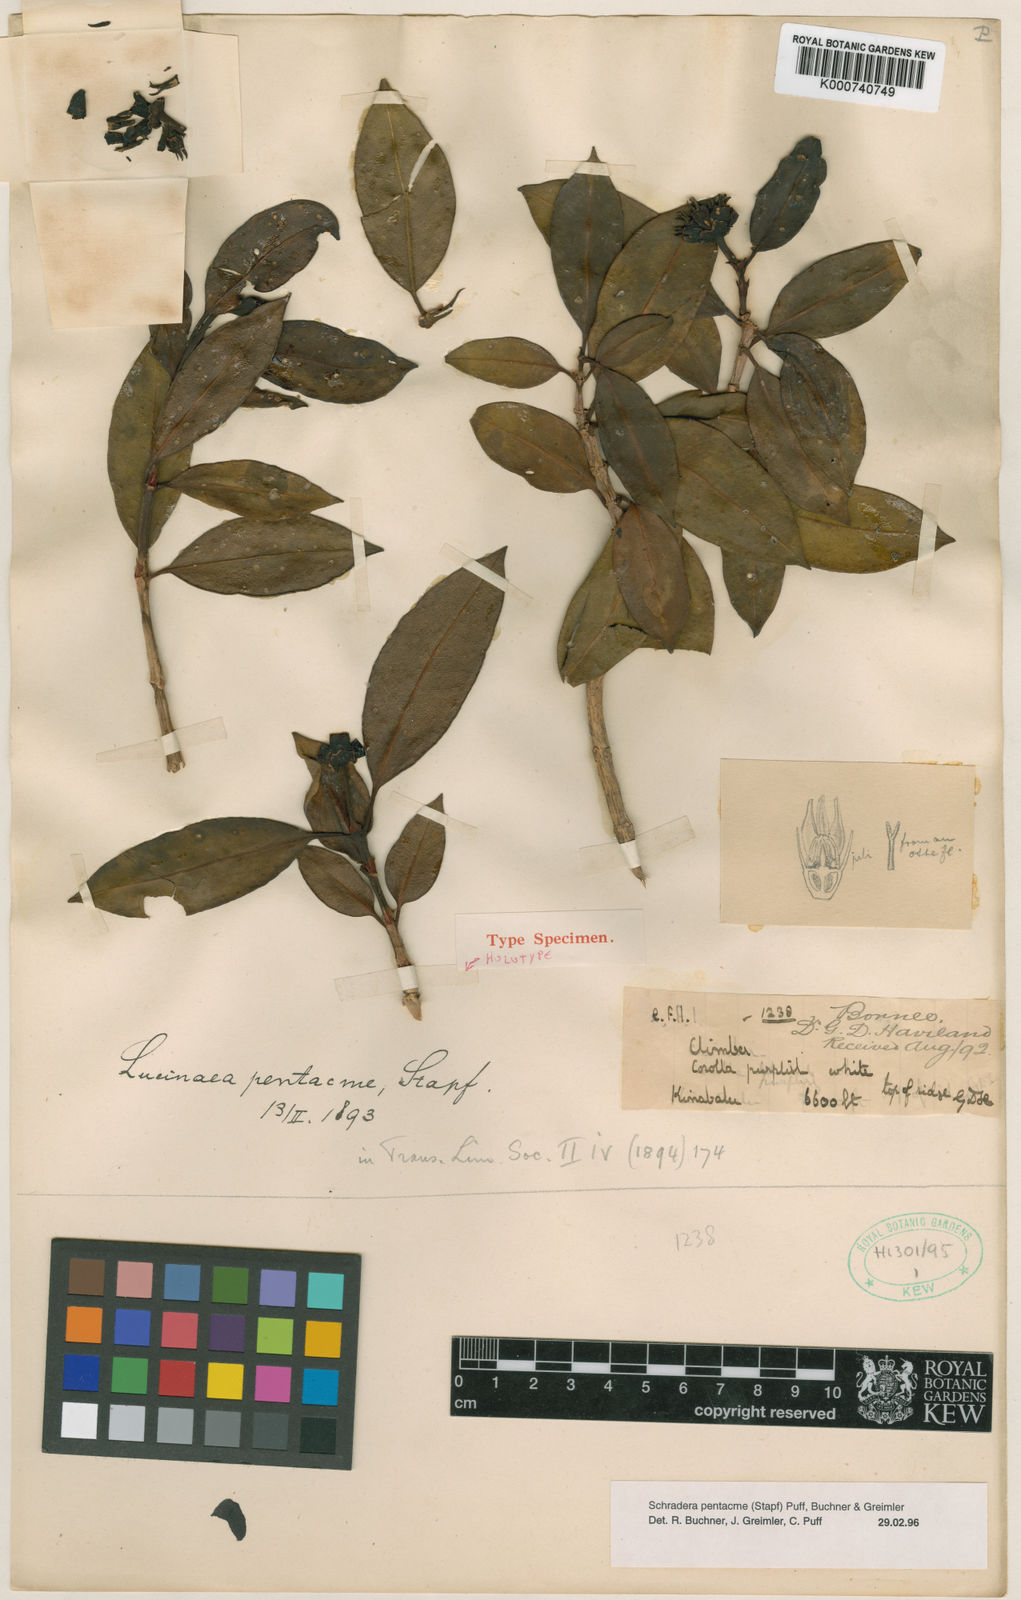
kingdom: Plantae
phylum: Tracheophyta
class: Magnoliopsida
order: Gentianales
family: Rubiaceae
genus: Schradera
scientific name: Schradera pentacme
